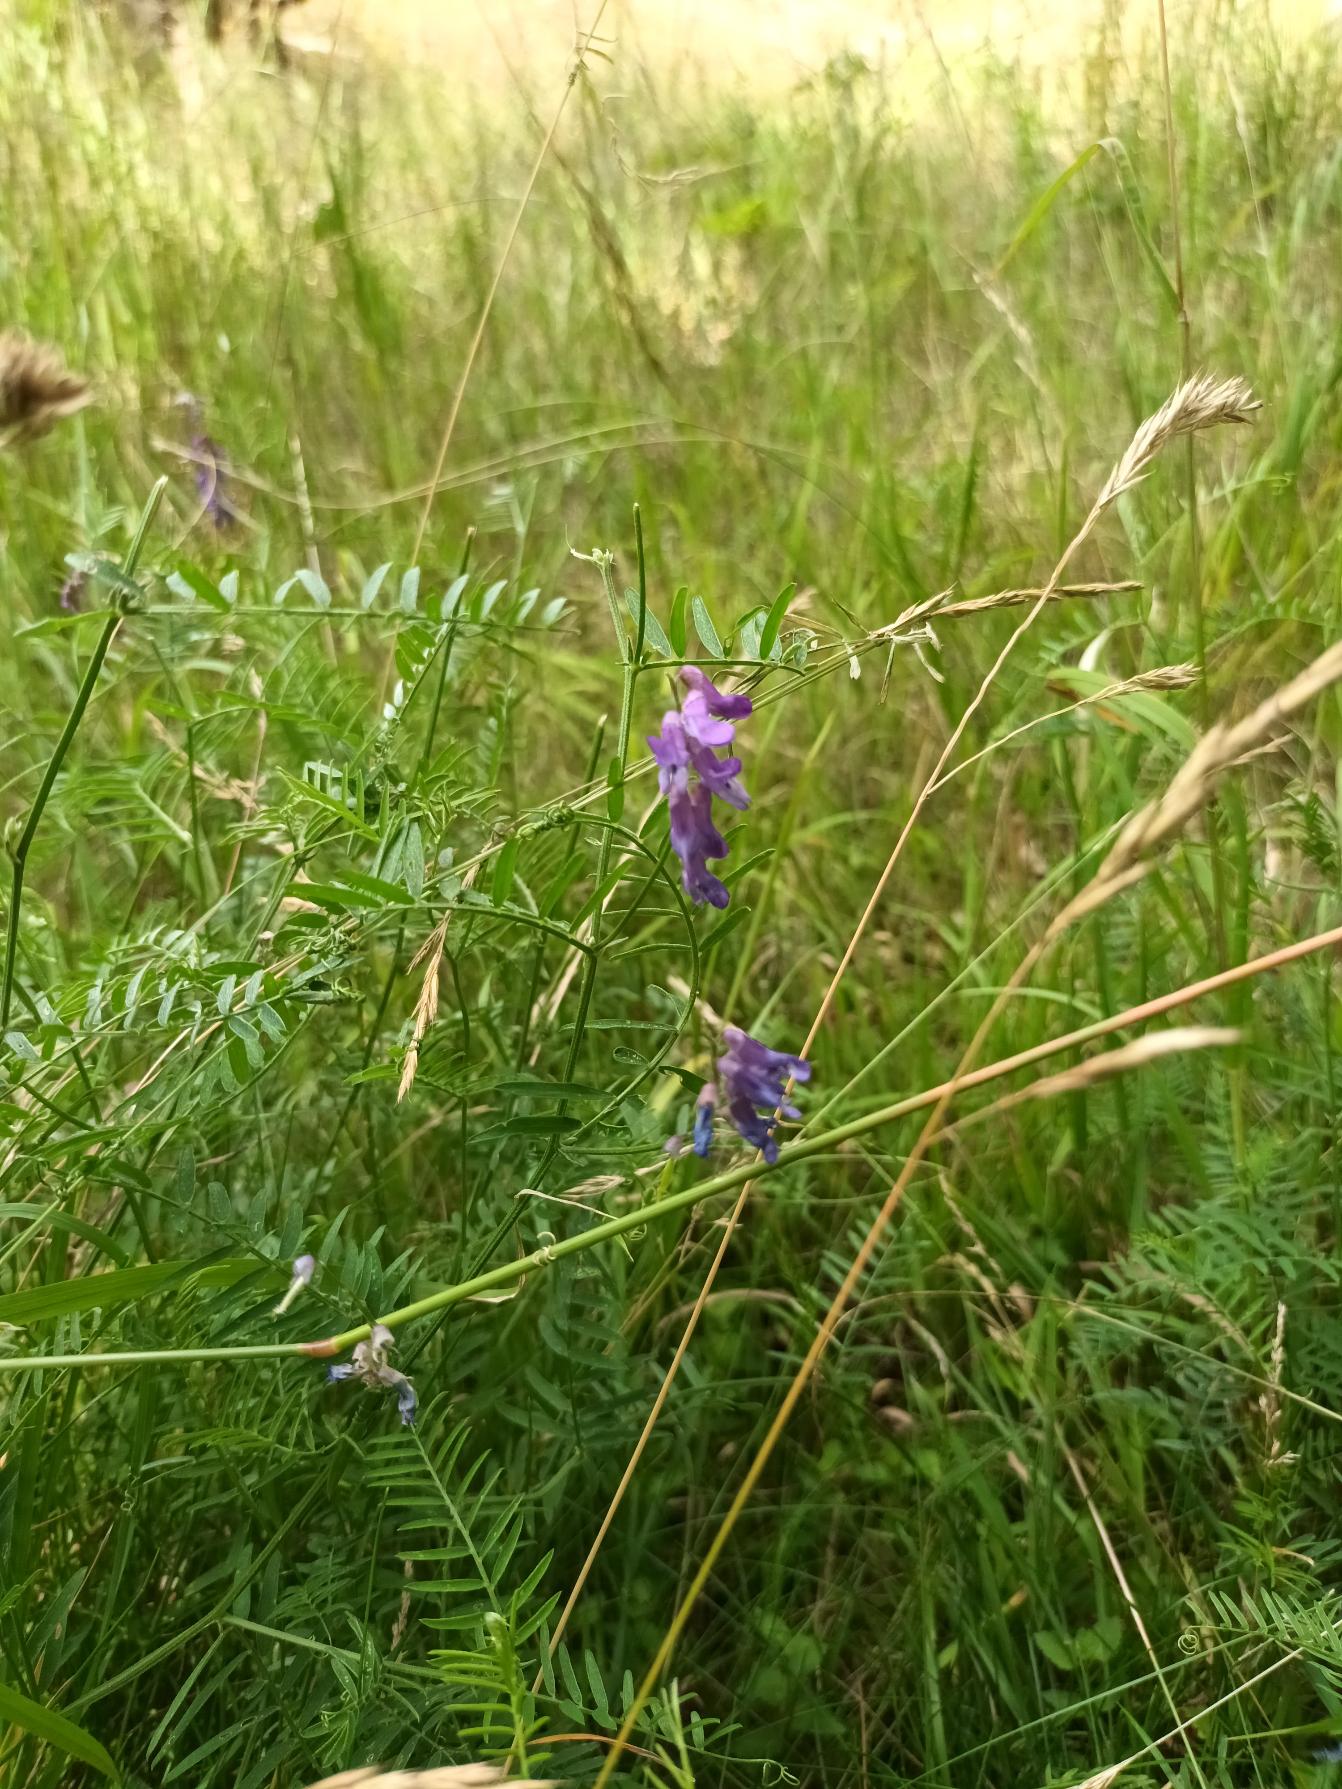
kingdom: Plantae
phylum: Tracheophyta
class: Magnoliopsida
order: Fabales
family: Fabaceae
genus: Vicia
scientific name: Vicia cracca
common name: Muse-vikke
